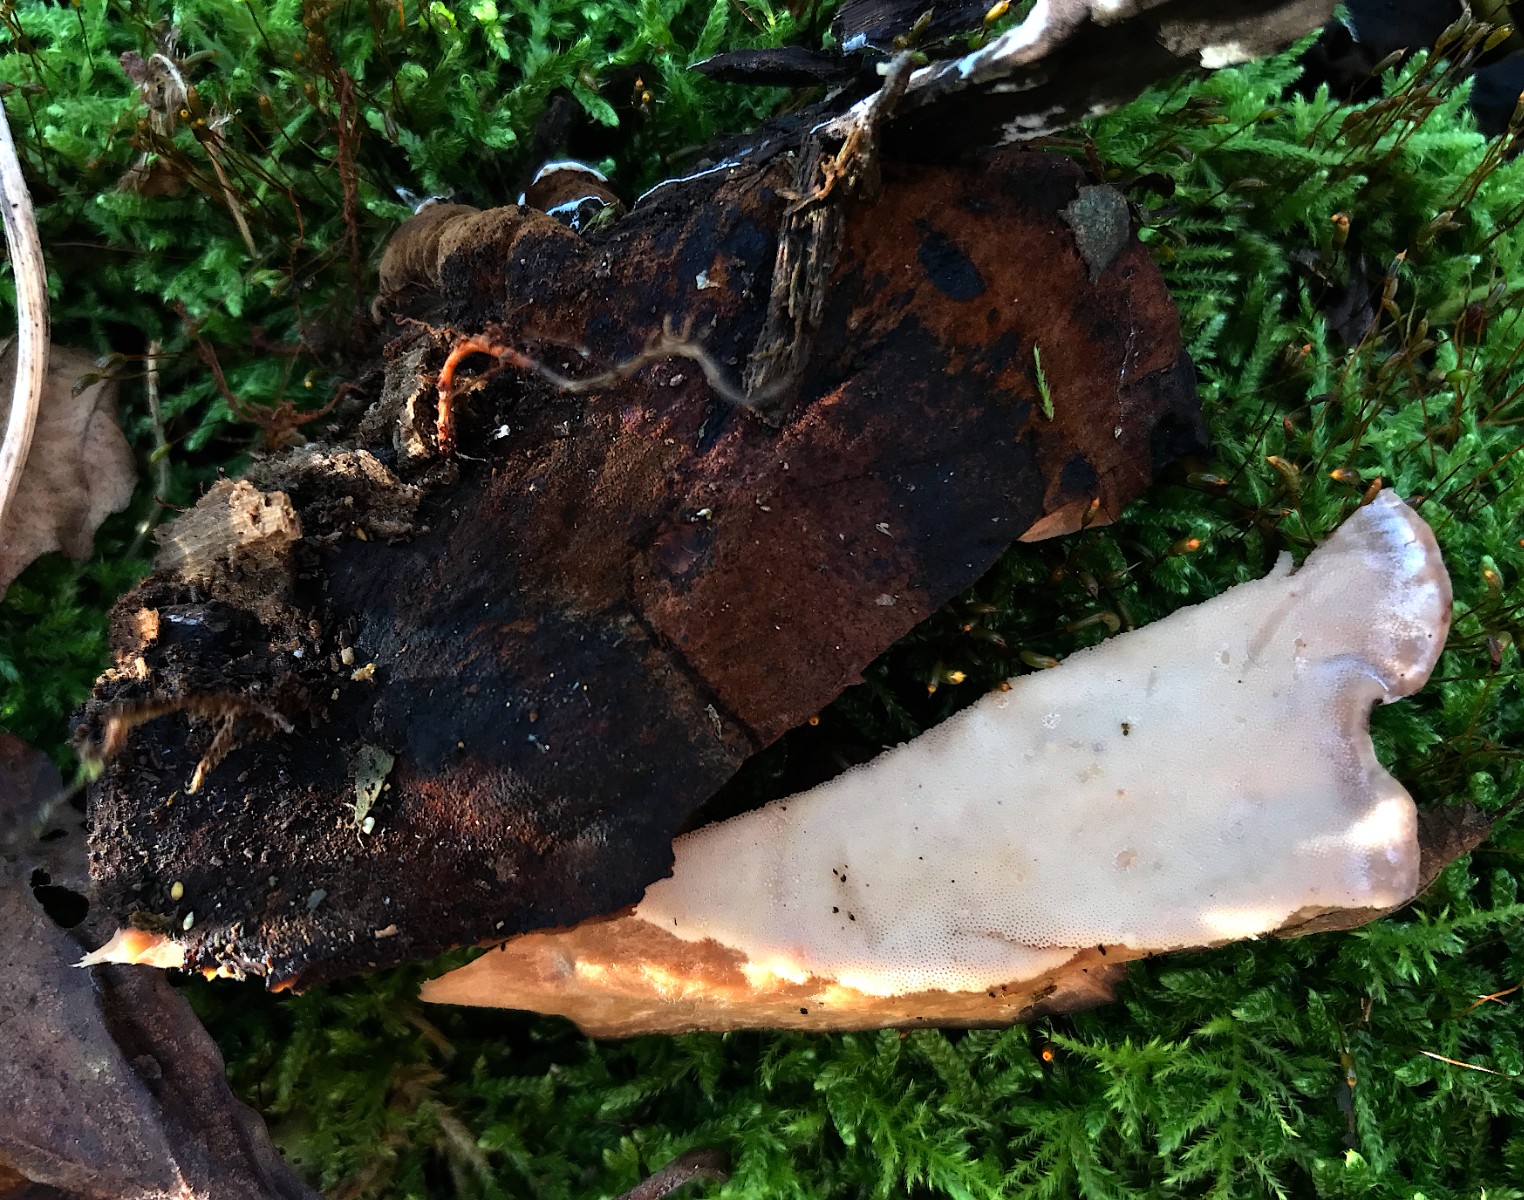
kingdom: Fungi
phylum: Basidiomycota
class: Agaricomycetes
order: Polyporales
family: Ischnodermataceae
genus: Ischnoderma
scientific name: Ischnoderma resinosum
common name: løv-tjæreporesvamp
